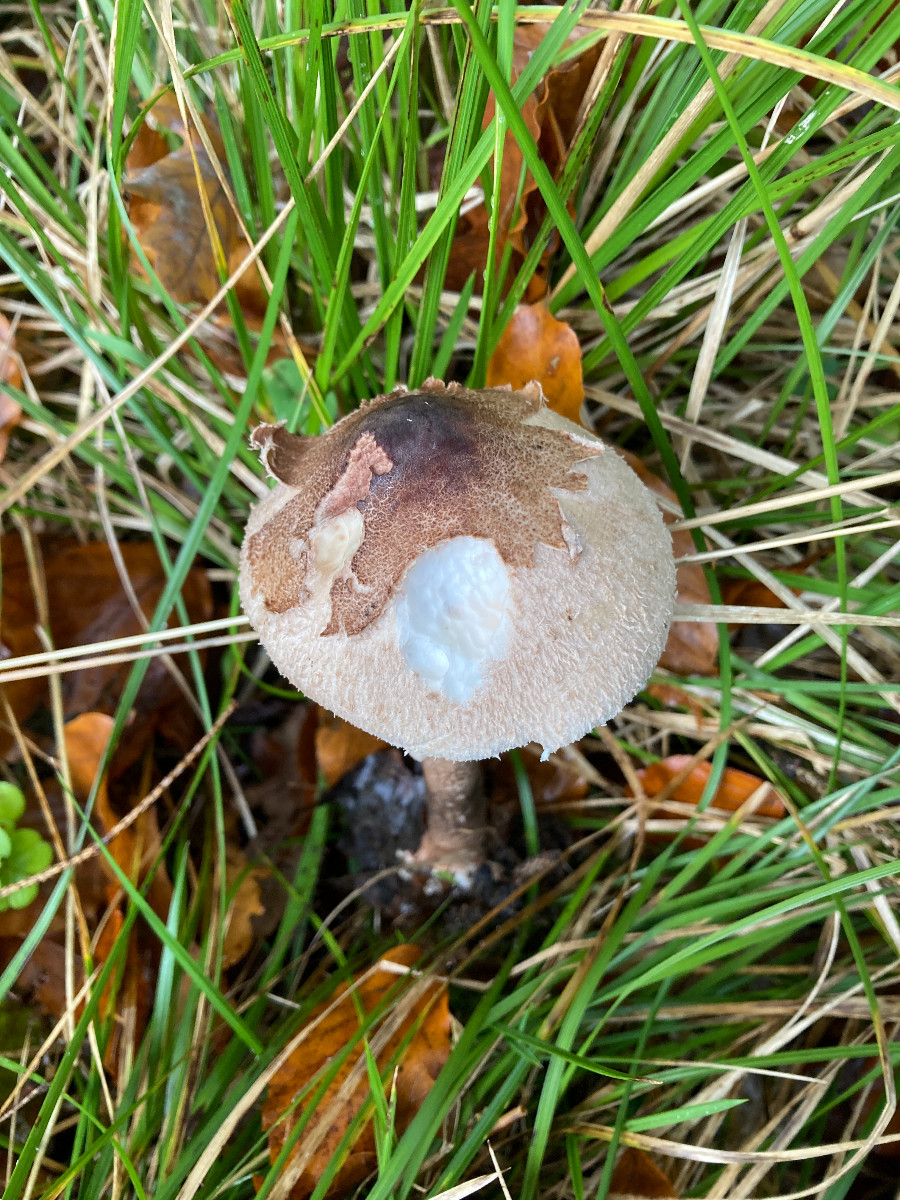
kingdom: Fungi
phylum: Basidiomycota
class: Agaricomycetes
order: Agaricales
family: Agaricaceae
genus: Macrolepiota
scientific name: Macrolepiota fuliginosa
